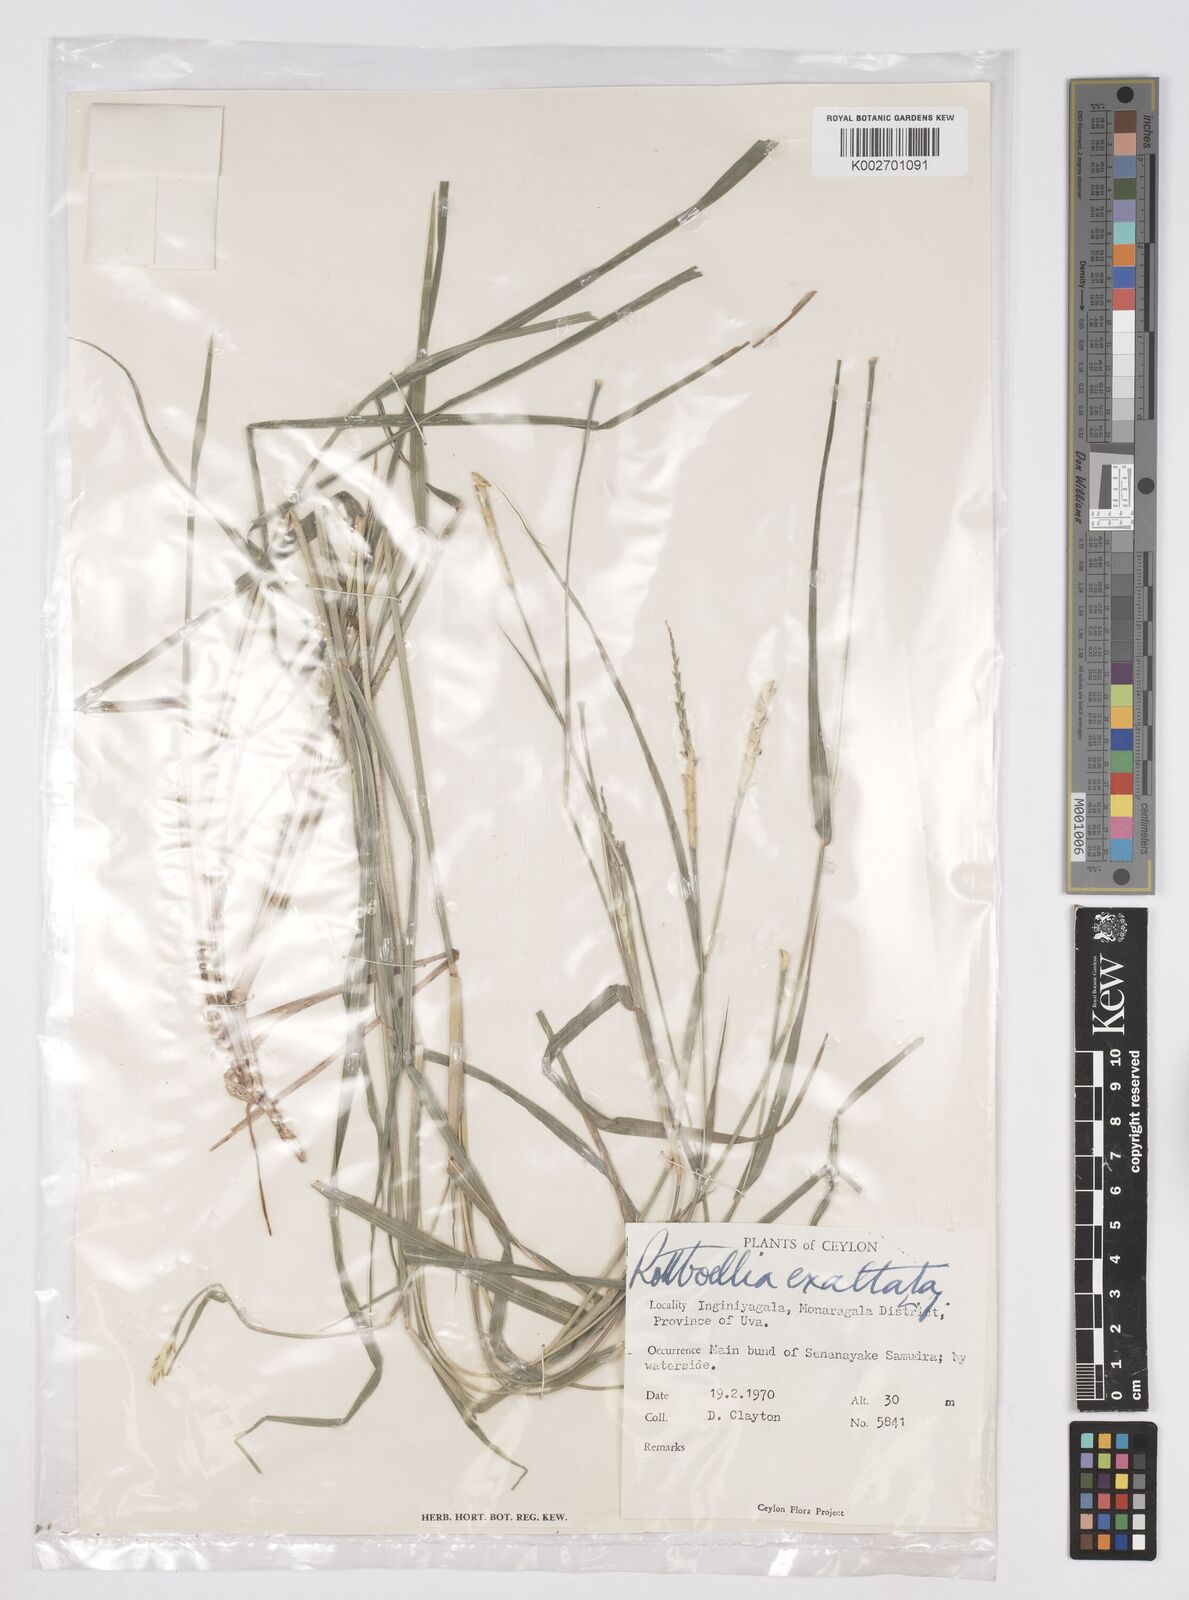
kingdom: Plantae
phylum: Tracheophyta
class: Liliopsida
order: Poales
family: Poaceae
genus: Ophiuros
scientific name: Ophiuros exaltatus
